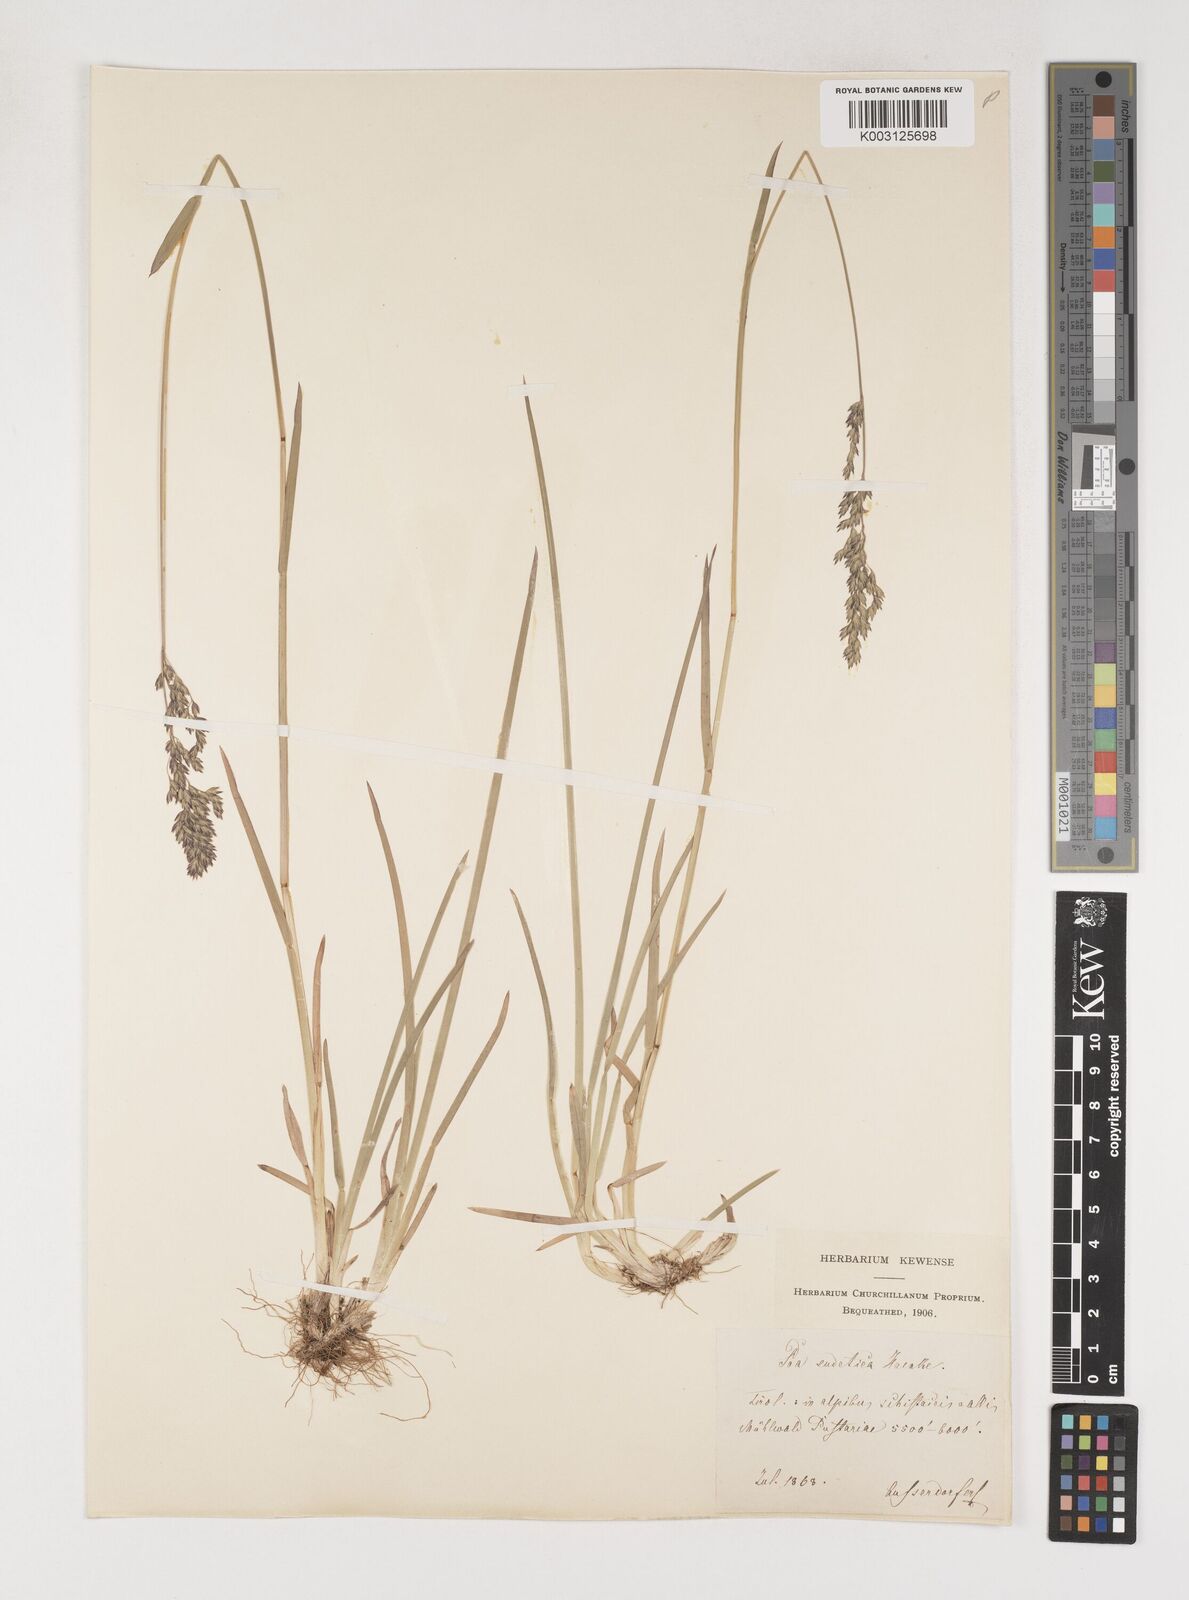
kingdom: Plantae
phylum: Tracheophyta
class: Liliopsida
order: Poales
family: Poaceae
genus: Poa
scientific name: Poa chaixii
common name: Broad-leaved meadow-grass
